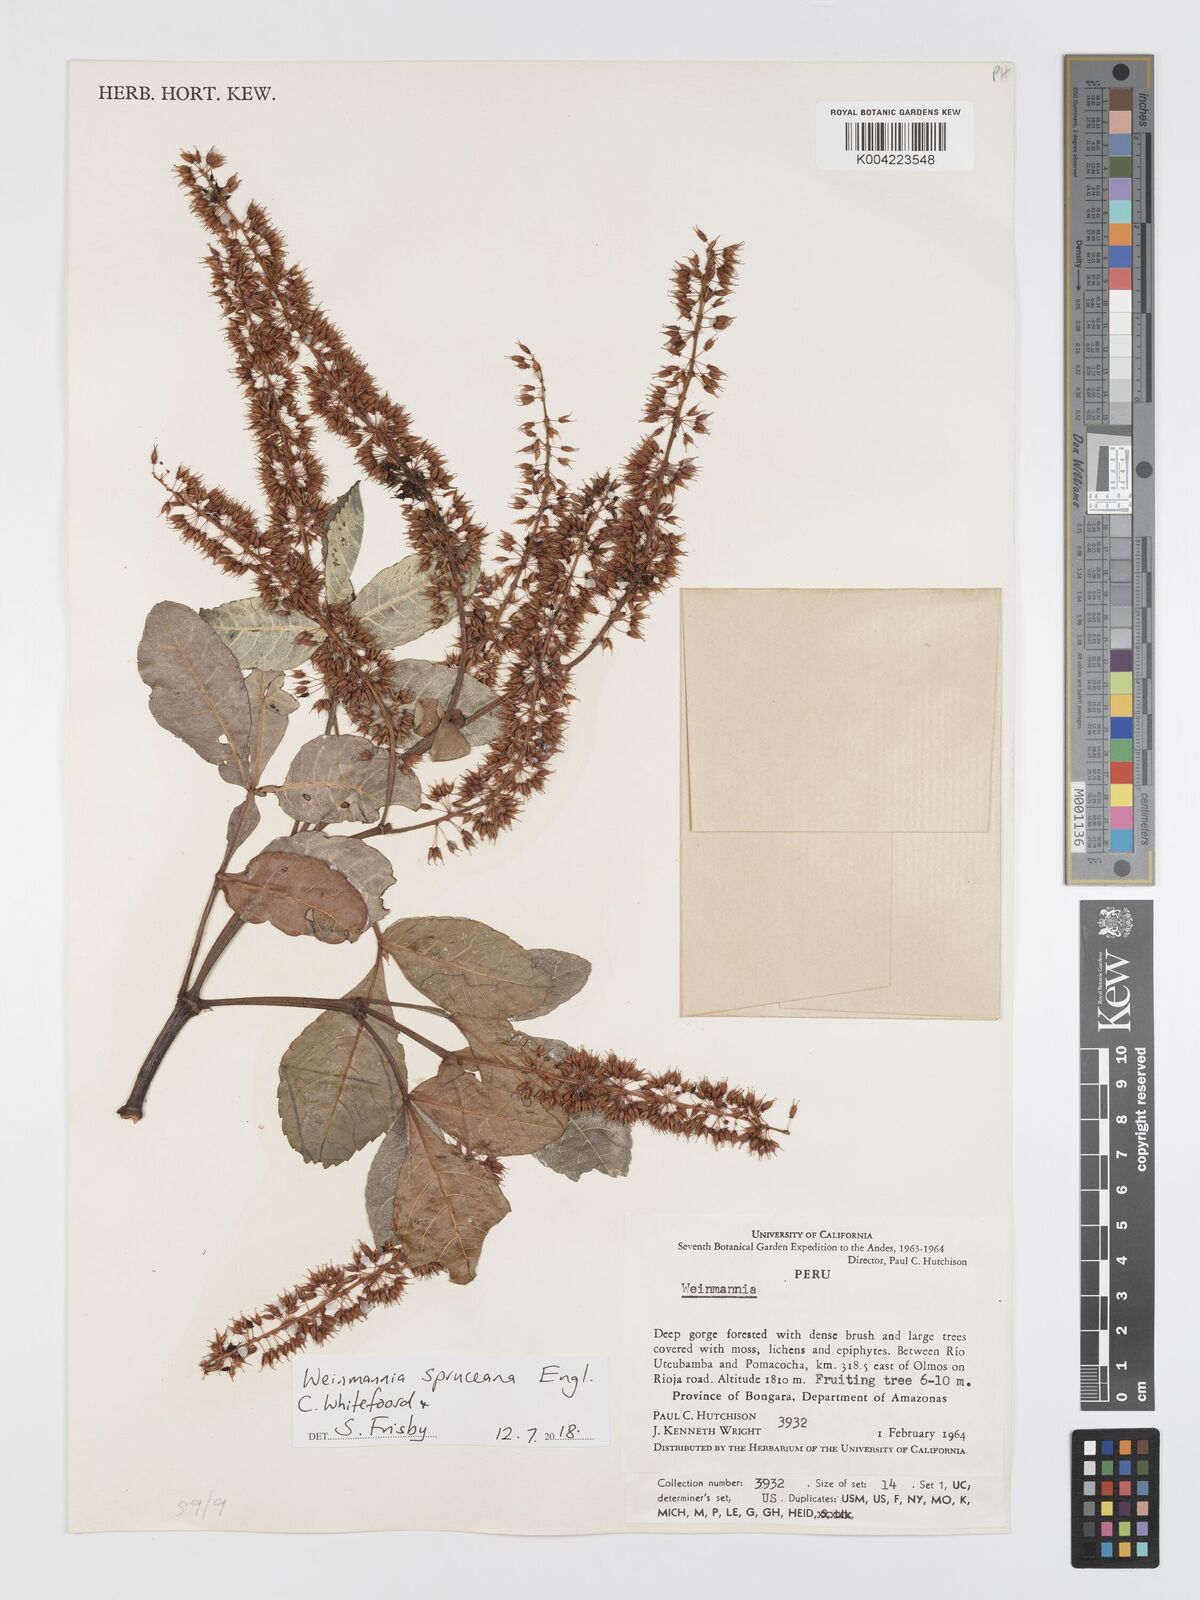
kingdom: Plantae
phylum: Tracheophyta
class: Magnoliopsida
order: Oxalidales
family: Cunoniaceae
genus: Weinmannia
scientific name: Weinmannia spruceana
